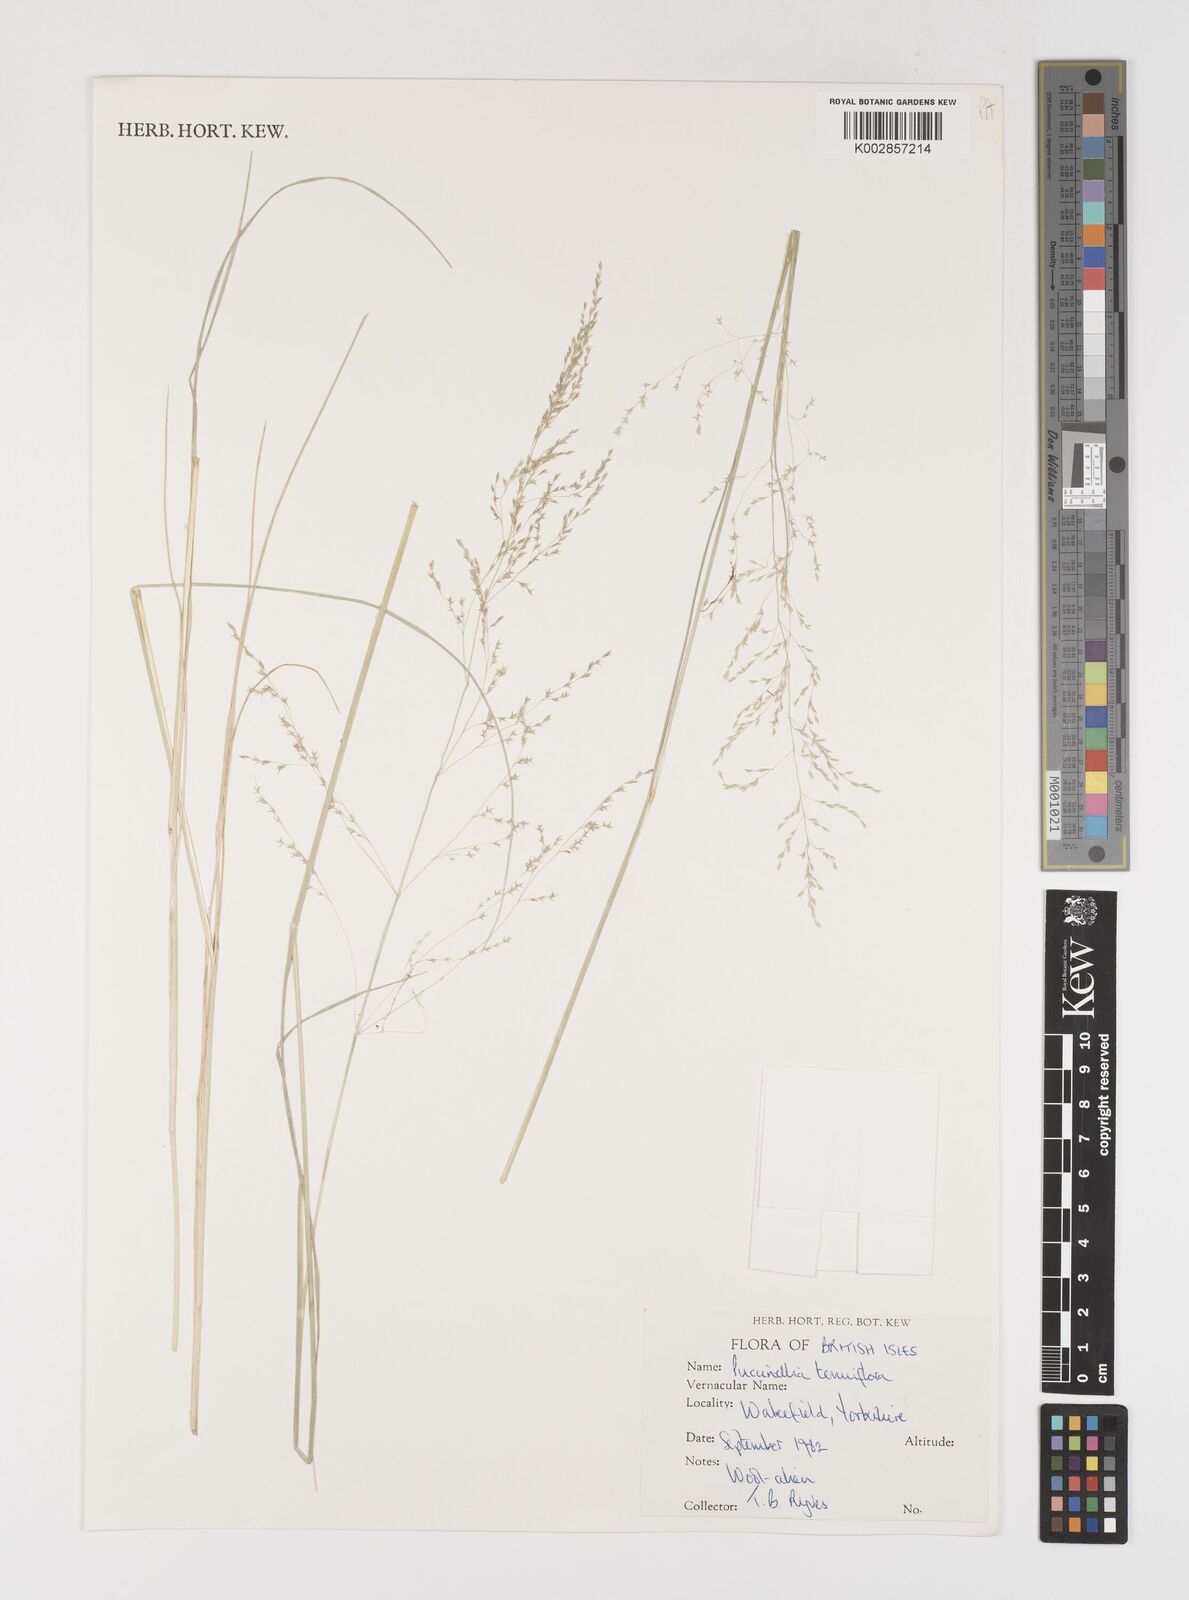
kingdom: Plantae
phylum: Tracheophyta
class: Liliopsida
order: Poales
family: Poaceae
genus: Puccinellia
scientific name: Puccinellia tenuiflora
